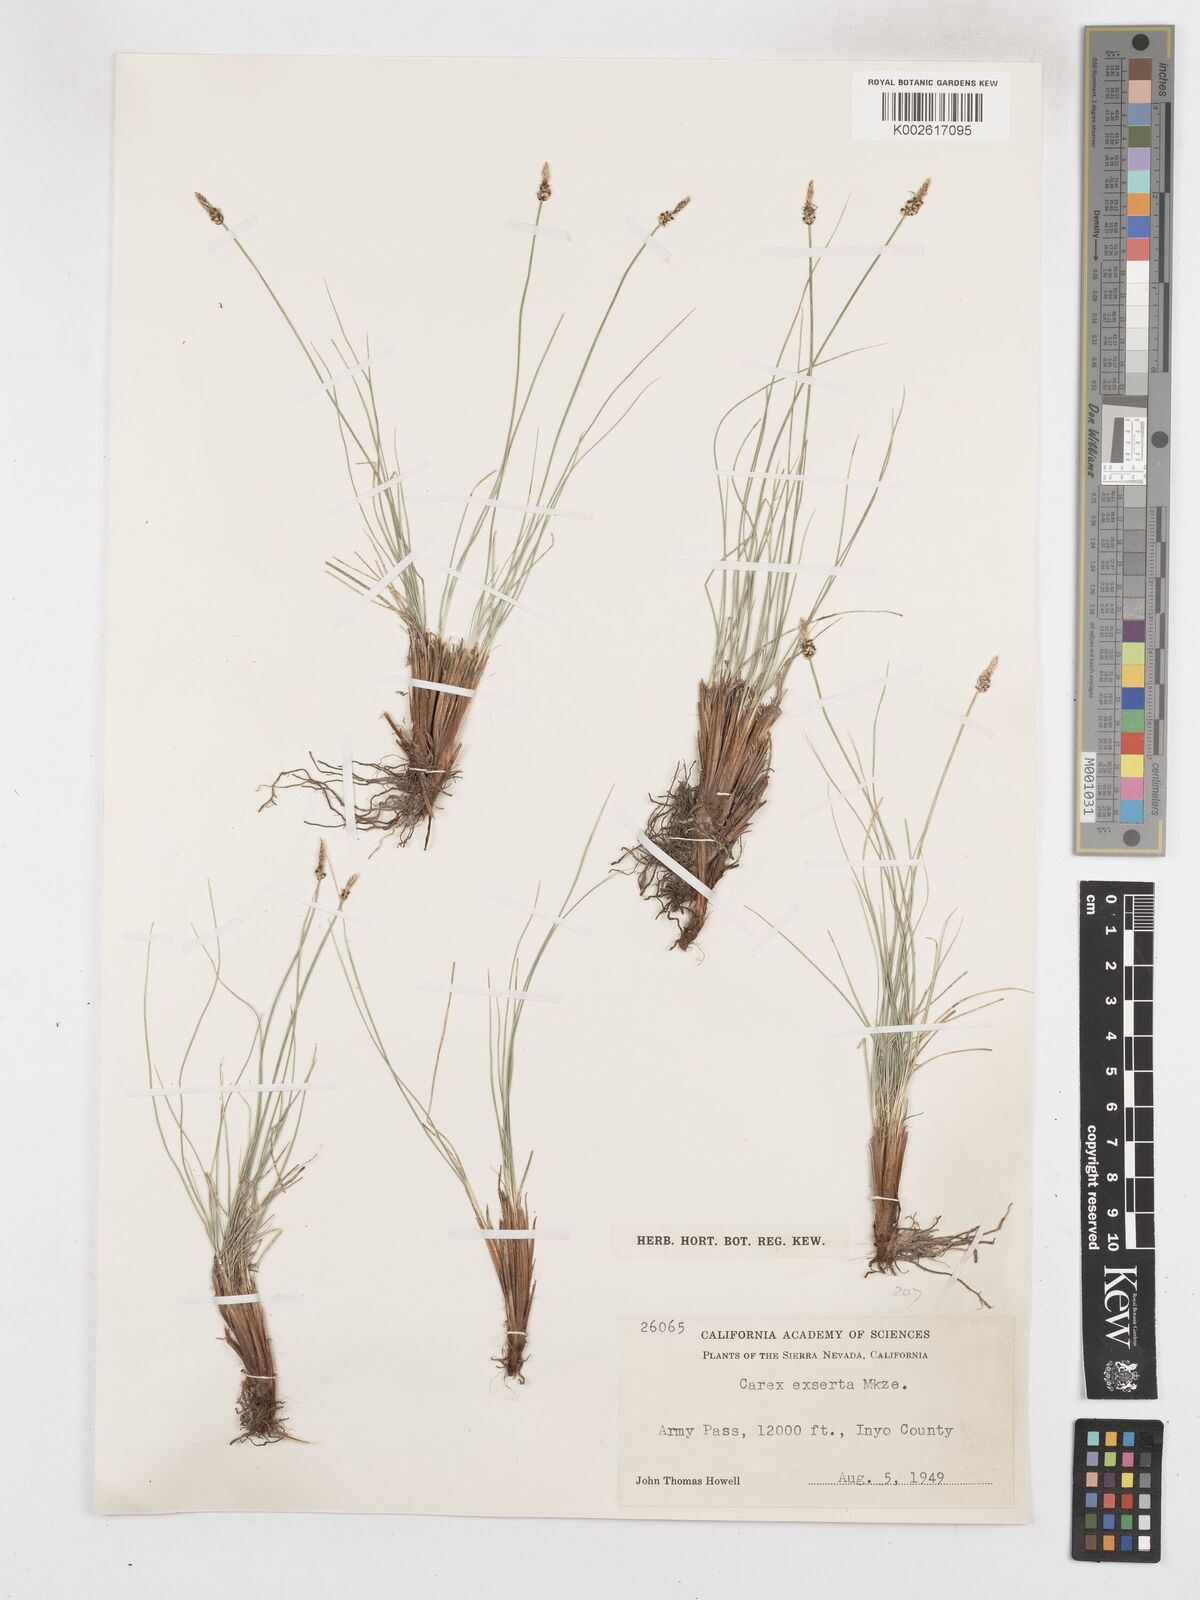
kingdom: Plantae
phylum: Tracheophyta
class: Liliopsida
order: Poales
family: Cyperaceae
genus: Carex
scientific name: Carex glossostigma
